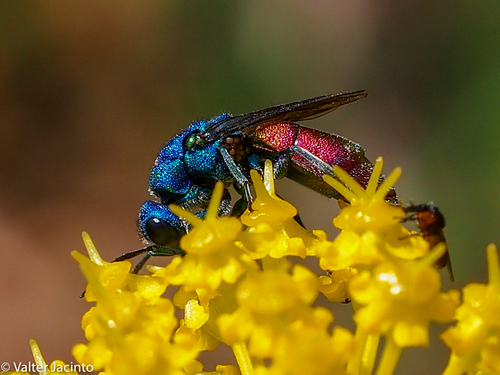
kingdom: Animalia
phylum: Arthropoda
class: Insecta
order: Hymenoptera
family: Chrysididae
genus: Chrysura
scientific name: Chrysura refulgens
